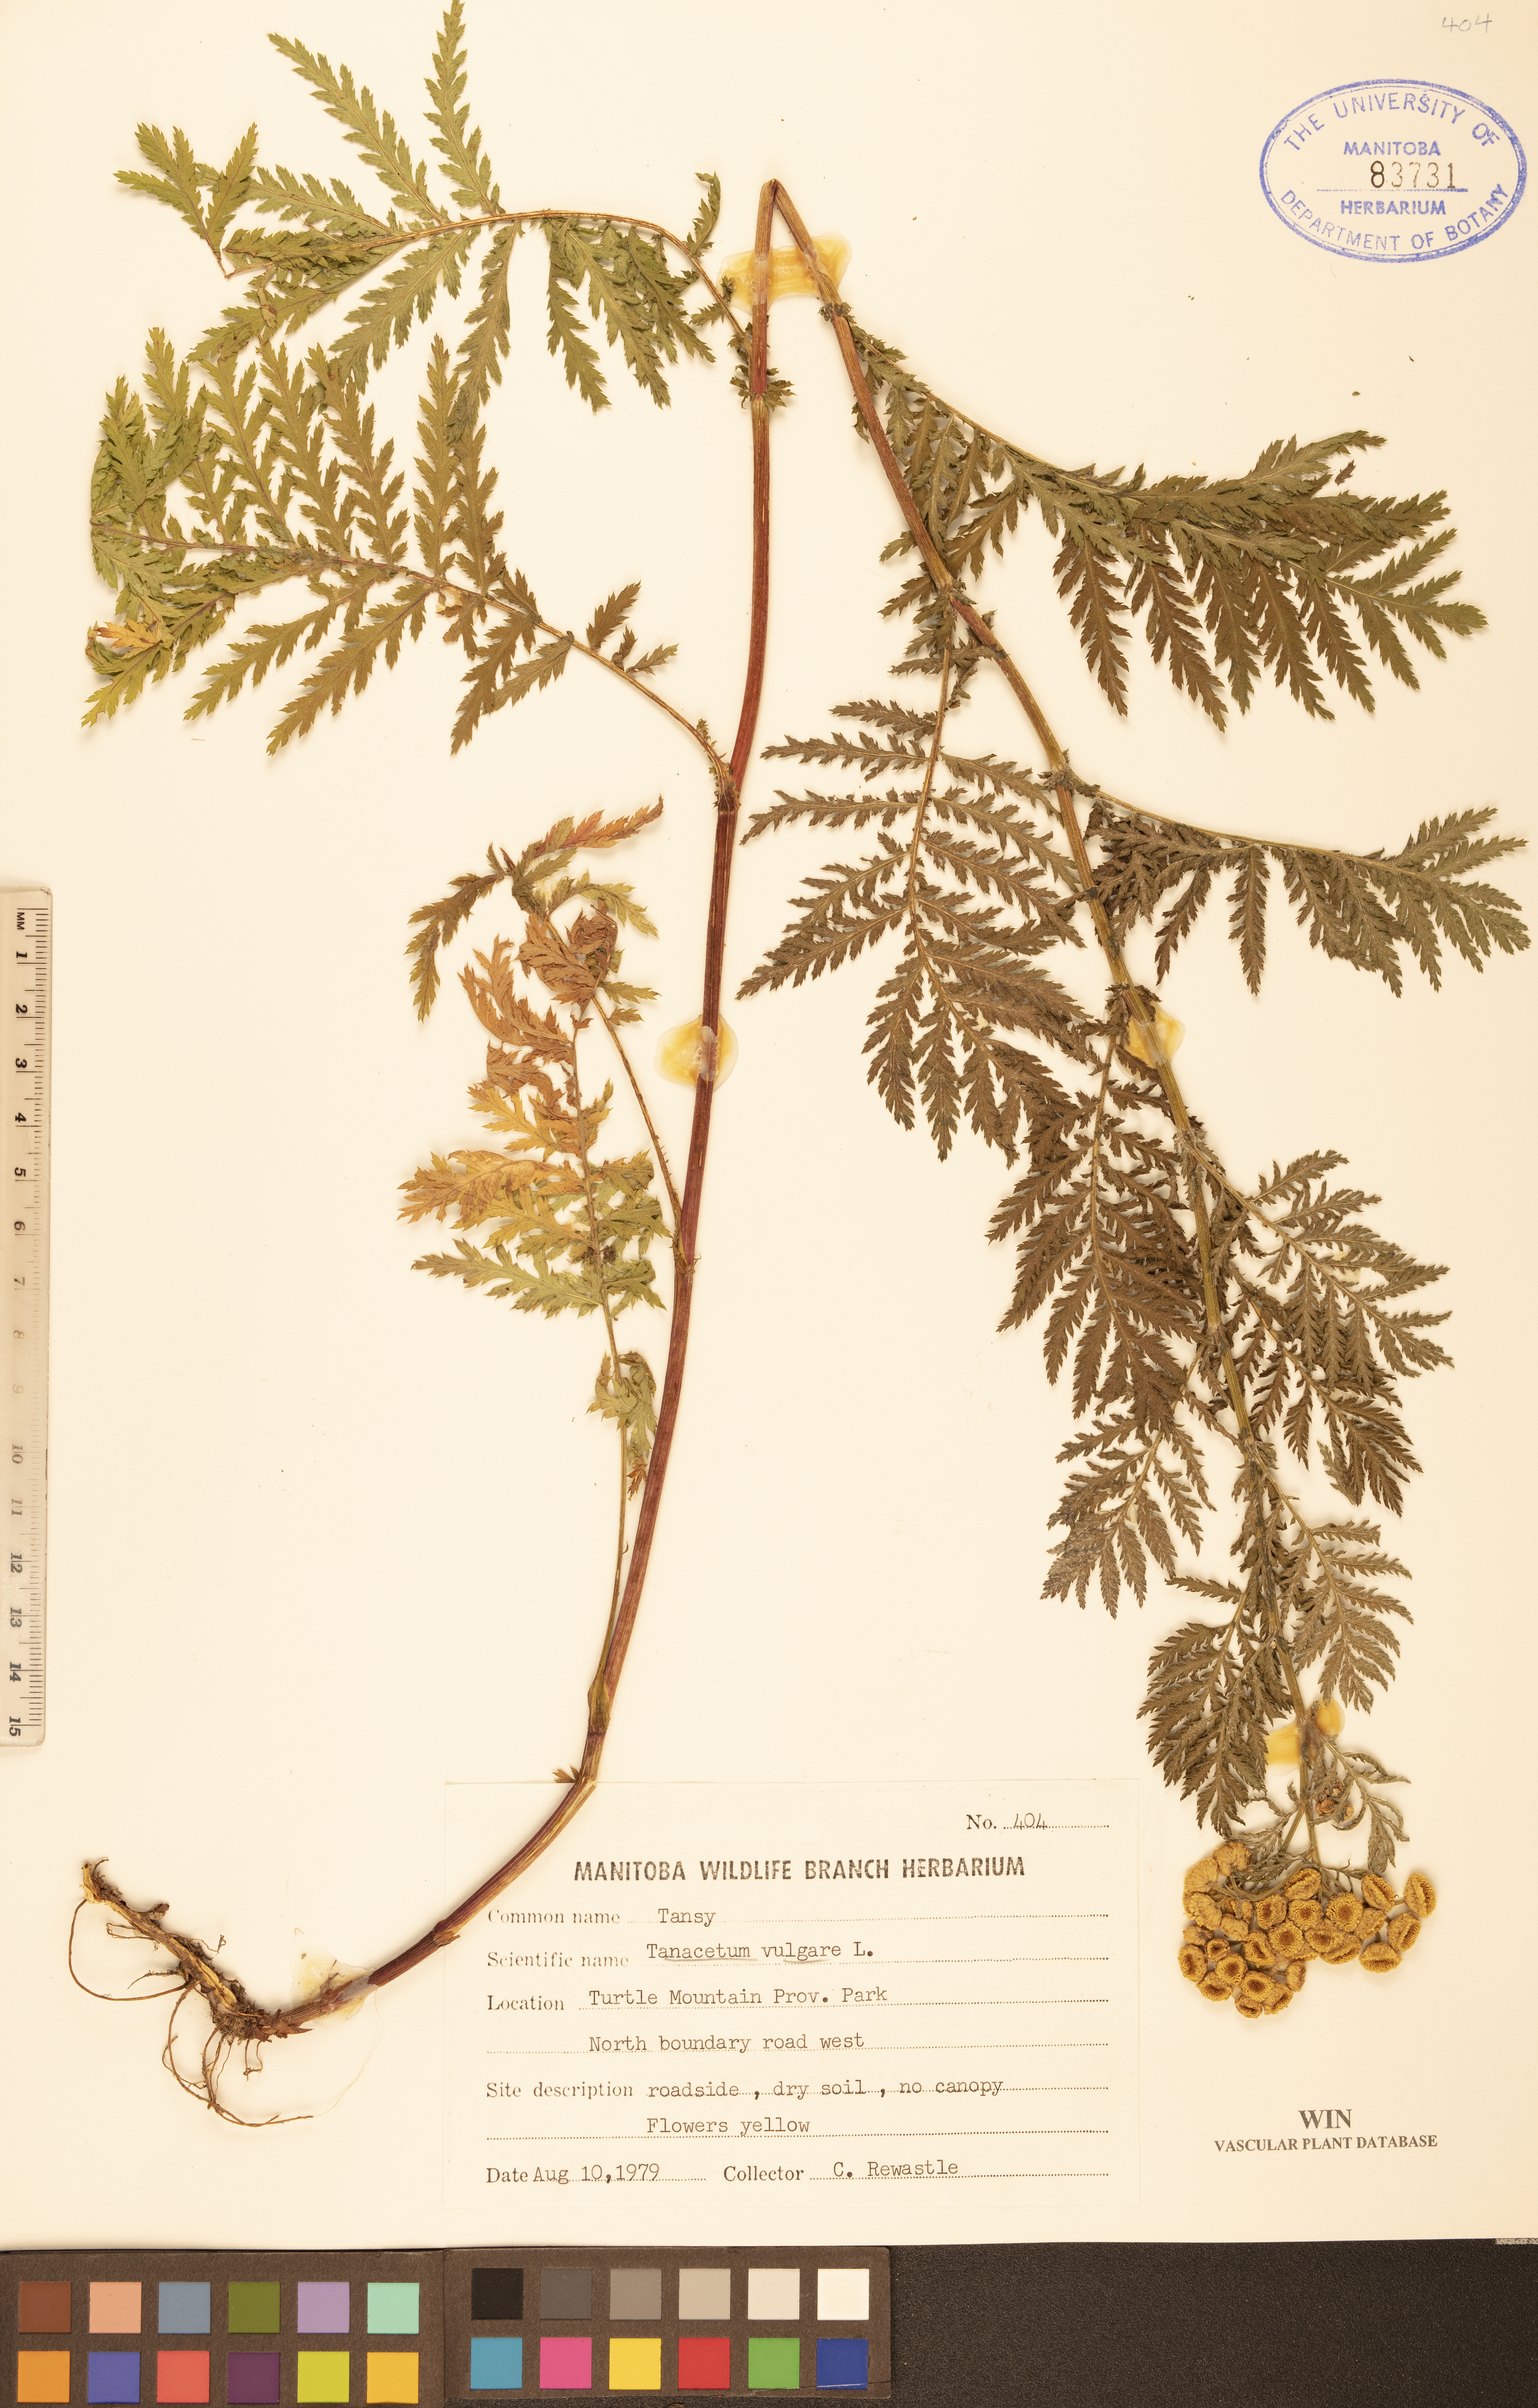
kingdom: Plantae
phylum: Tracheophyta
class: Magnoliopsida
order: Asterales
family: Asteraceae
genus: Tanacetum
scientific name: Tanacetum vulgare
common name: Common tansy
